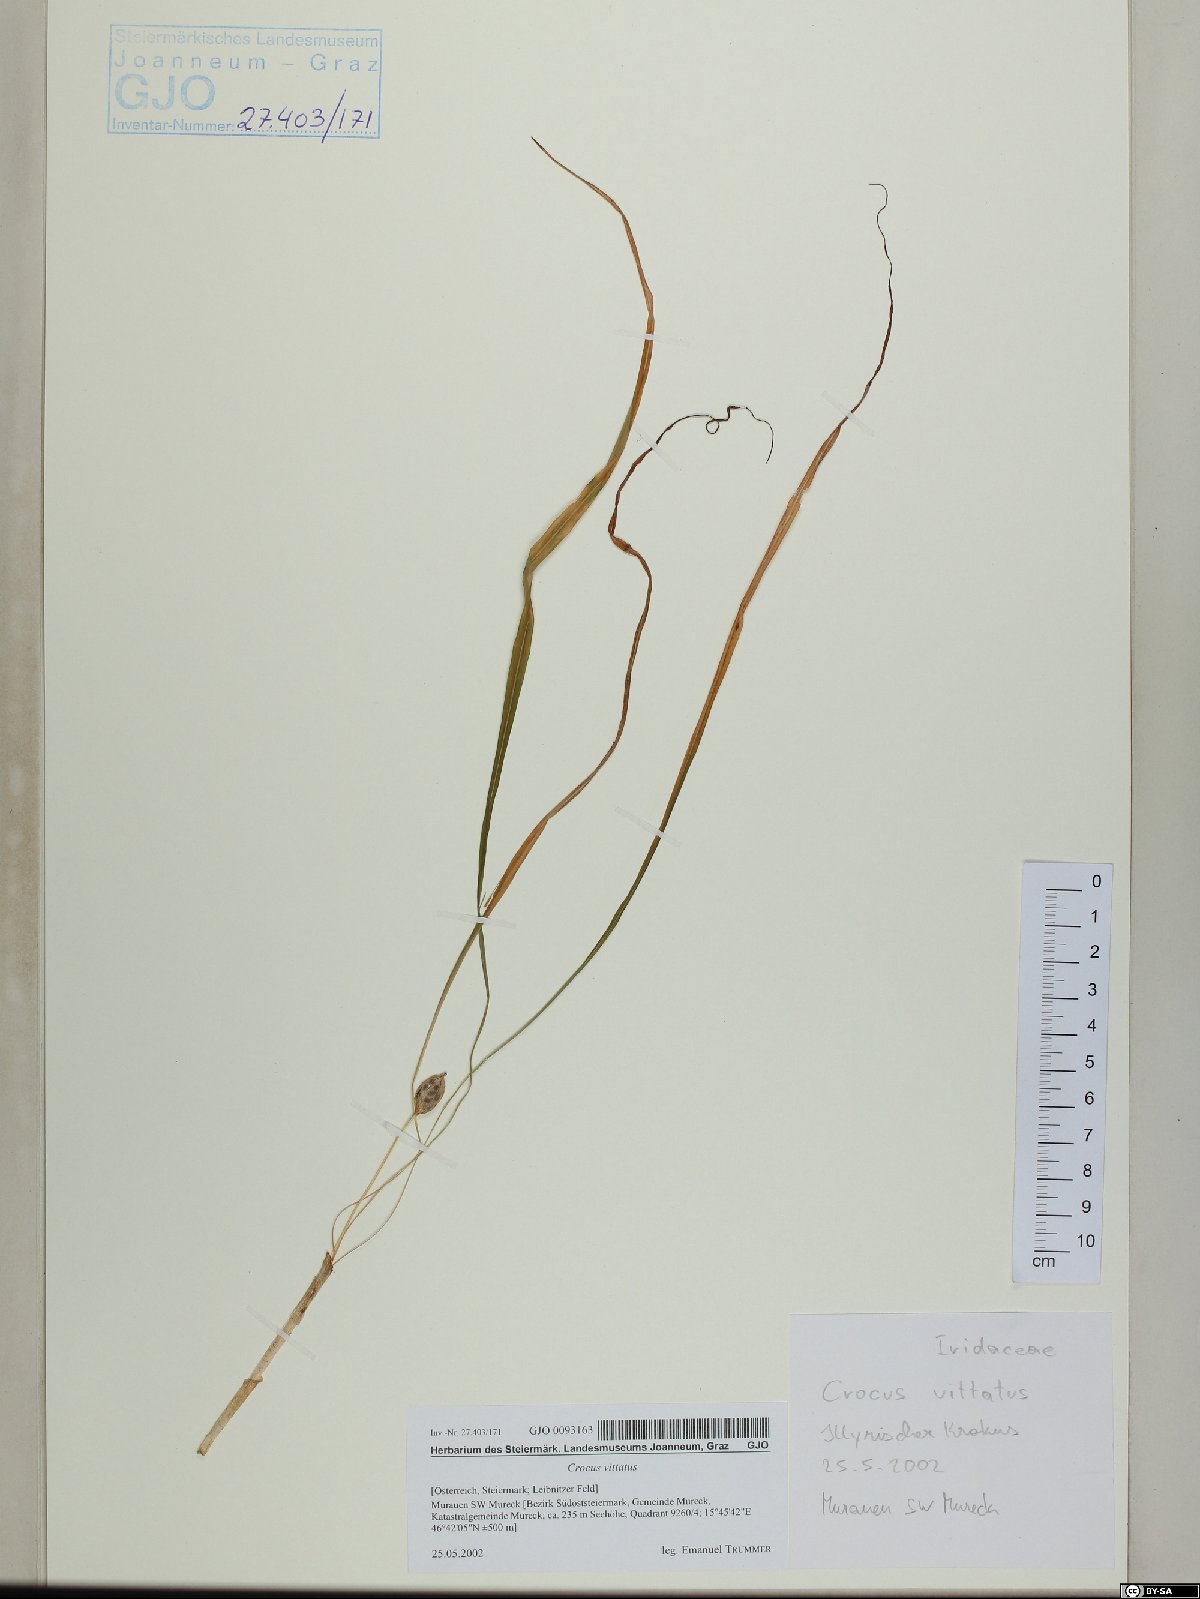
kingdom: Plantae
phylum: Tracheophyta
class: Liliopsida
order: Asparagales
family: Iridaceae
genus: Crocus
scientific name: Crocus heuffelianus
